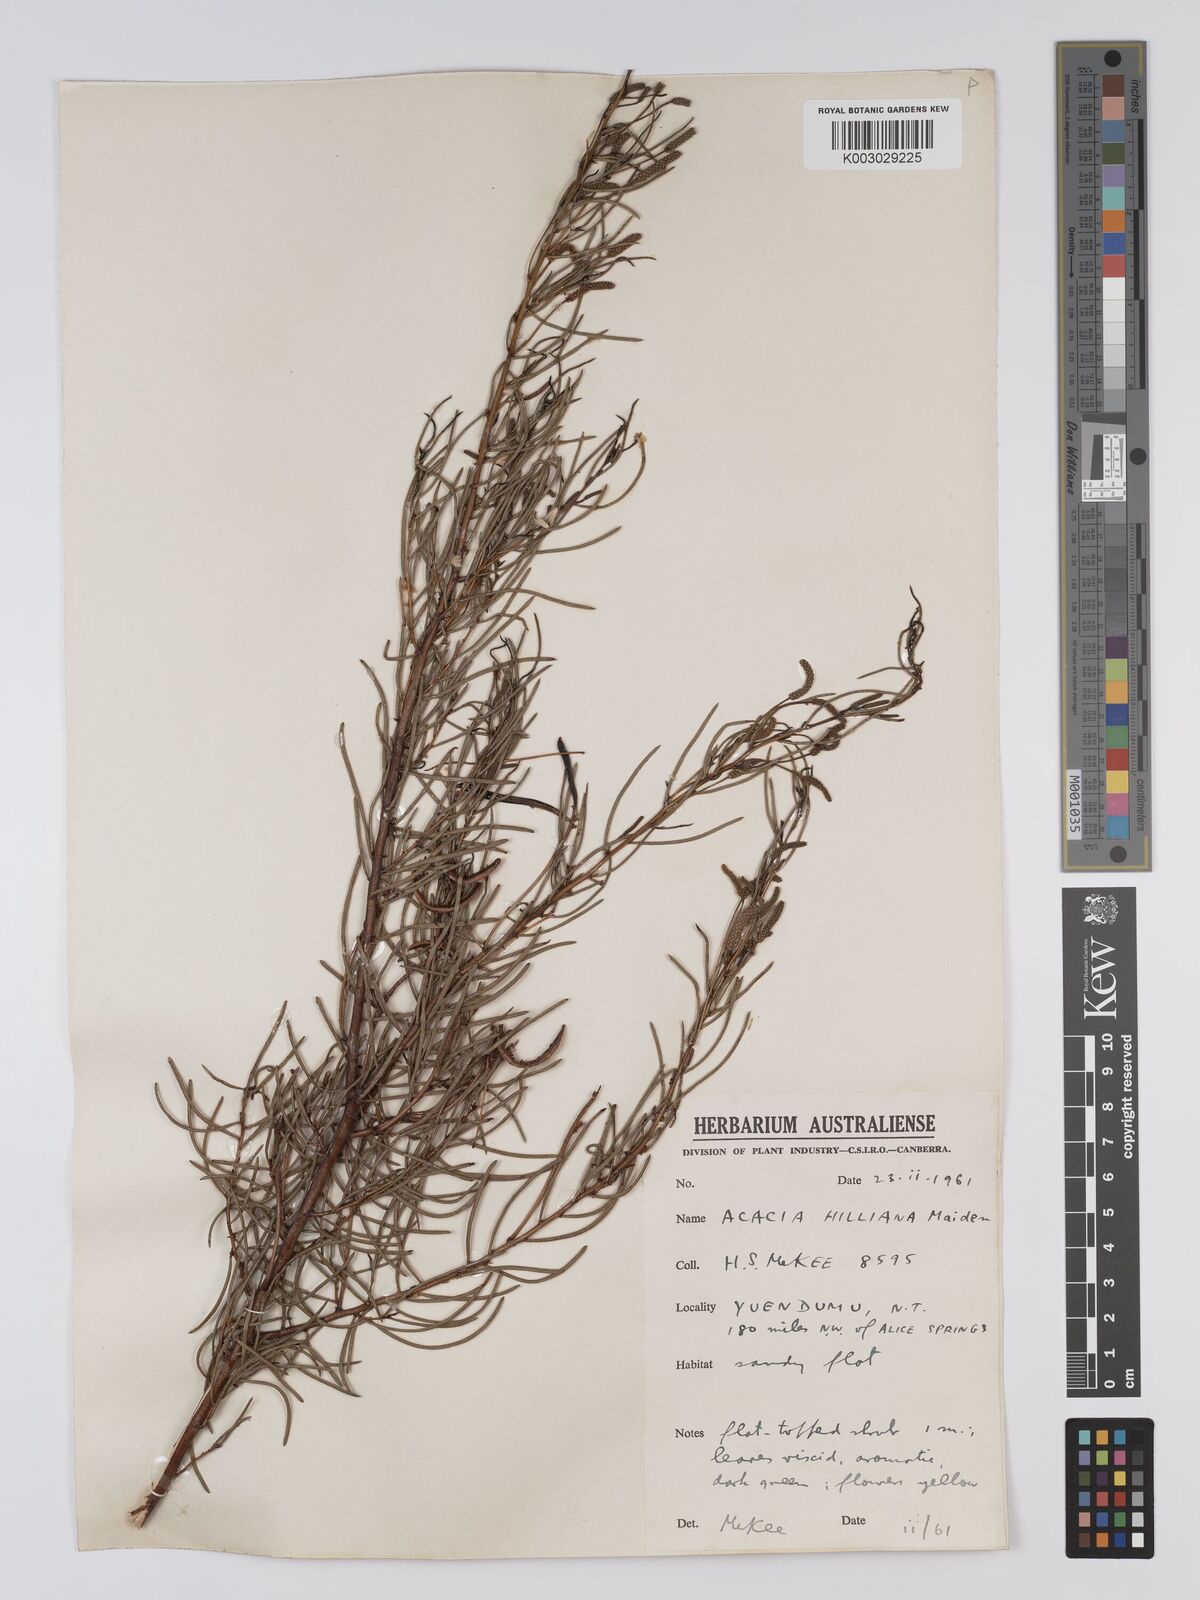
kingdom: Plantae
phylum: Tracheophyta
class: Magnoliopsida
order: Fabales
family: Fabaceae
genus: Acacia
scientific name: Acacia hilliana
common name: Hill's tabletop wattle
